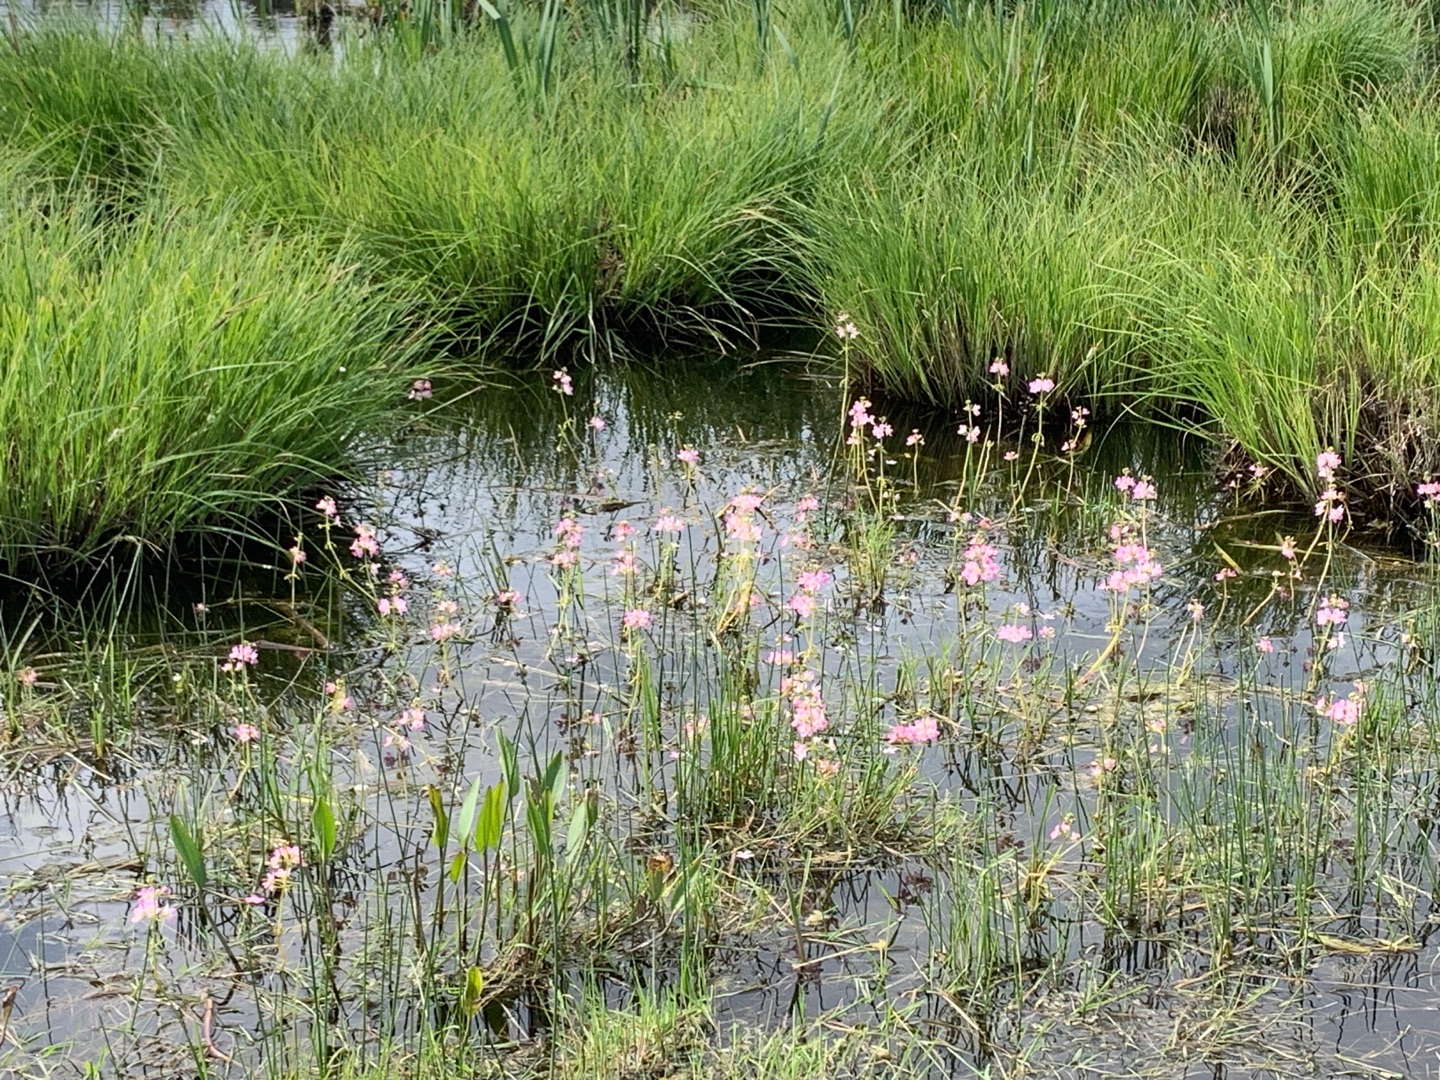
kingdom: Plantae
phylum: Tracheophyta
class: Magnoliopsida
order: Ericales
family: Primulaceae
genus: Hottonia
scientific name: Hottonia palustris
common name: Vandrøllike
